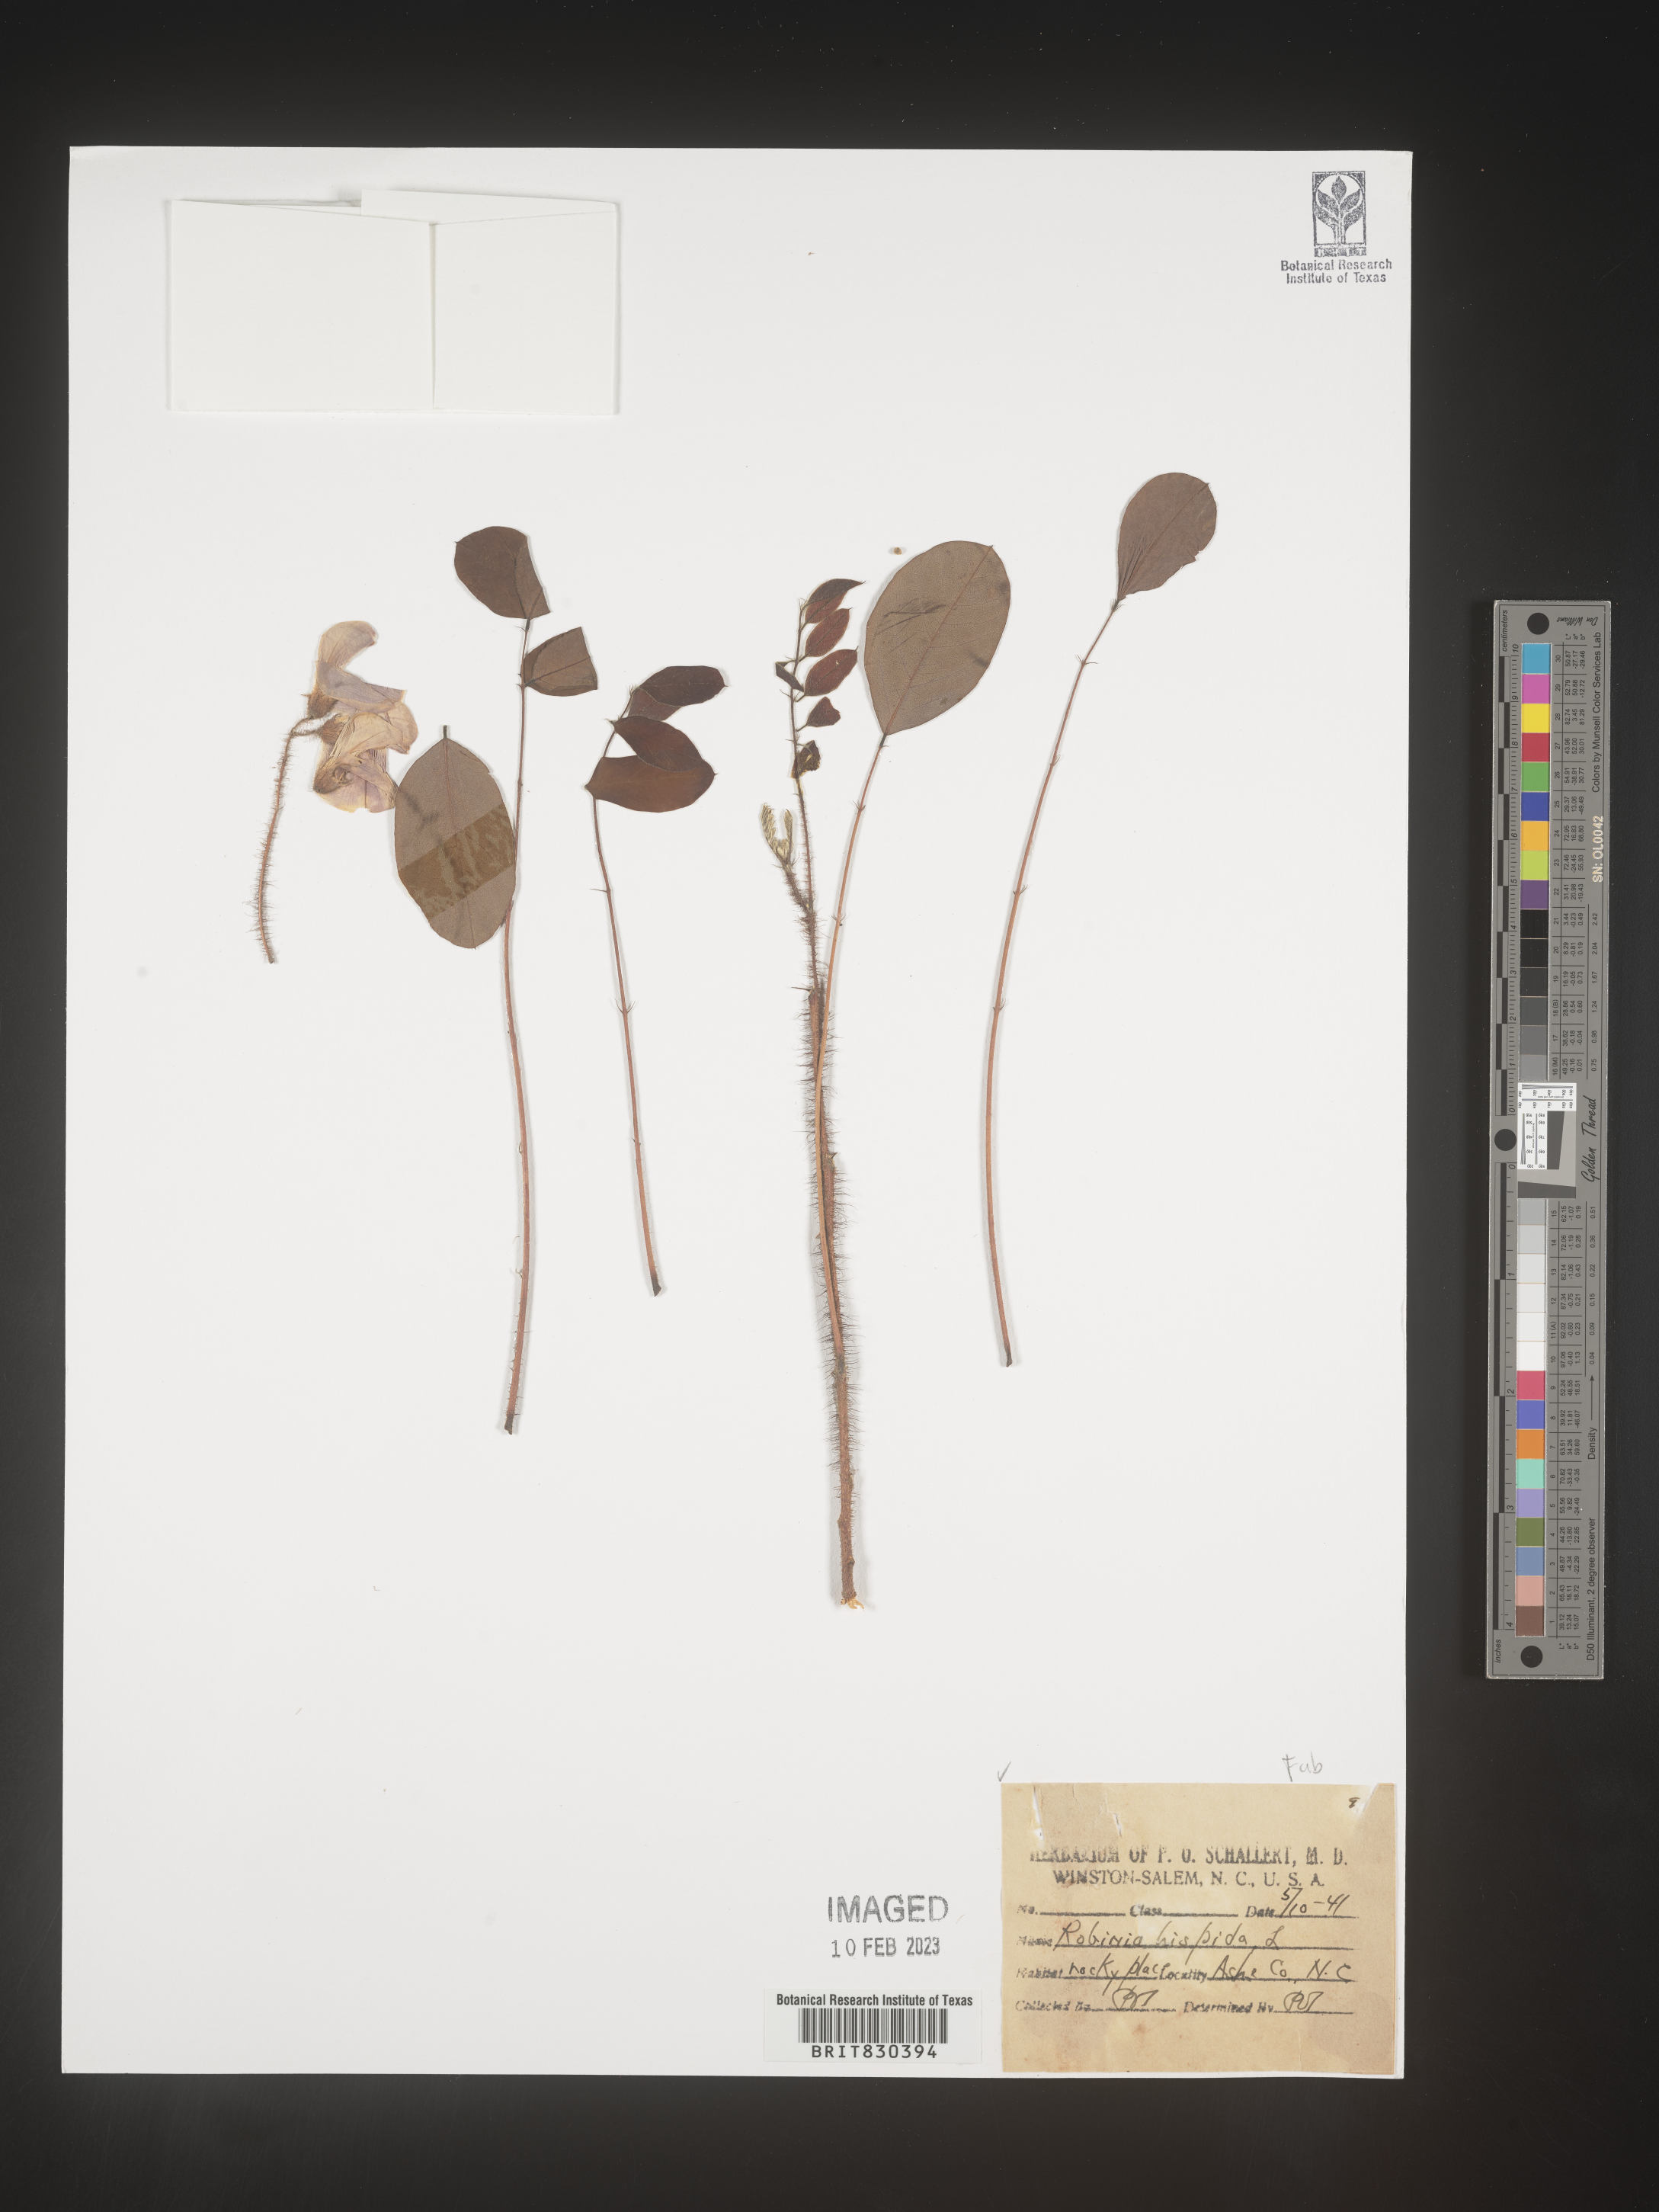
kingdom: Plantae
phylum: Tracheophyta
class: Magnoliopsida
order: Fabales
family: Fabaceae
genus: Robinia
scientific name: Robinia hispida
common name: Bristly locust
